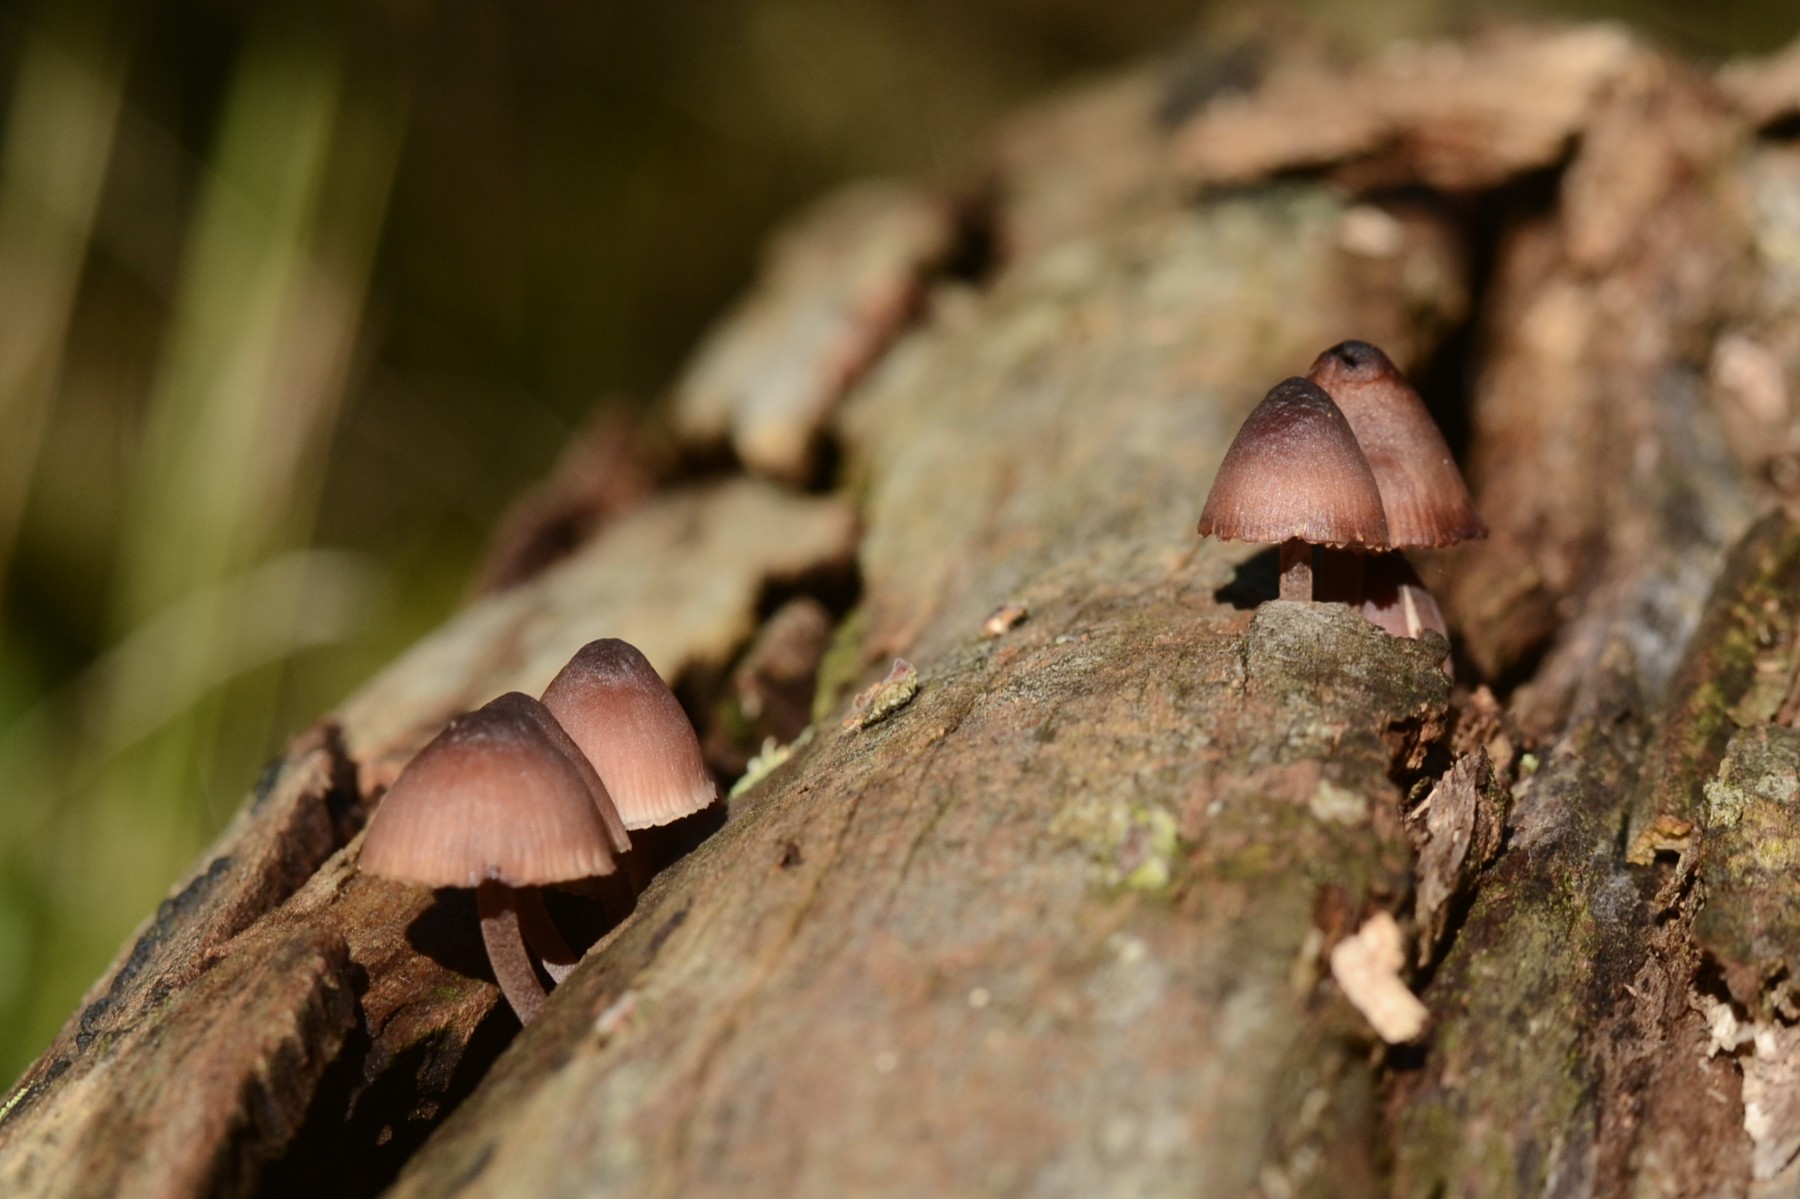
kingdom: Fungi
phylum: Basidiomycota
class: Agaricomycetes
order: Agaricales
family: Mycenaceae
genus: Mycena
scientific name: Mycena haematopus
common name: blødende huesvamp
